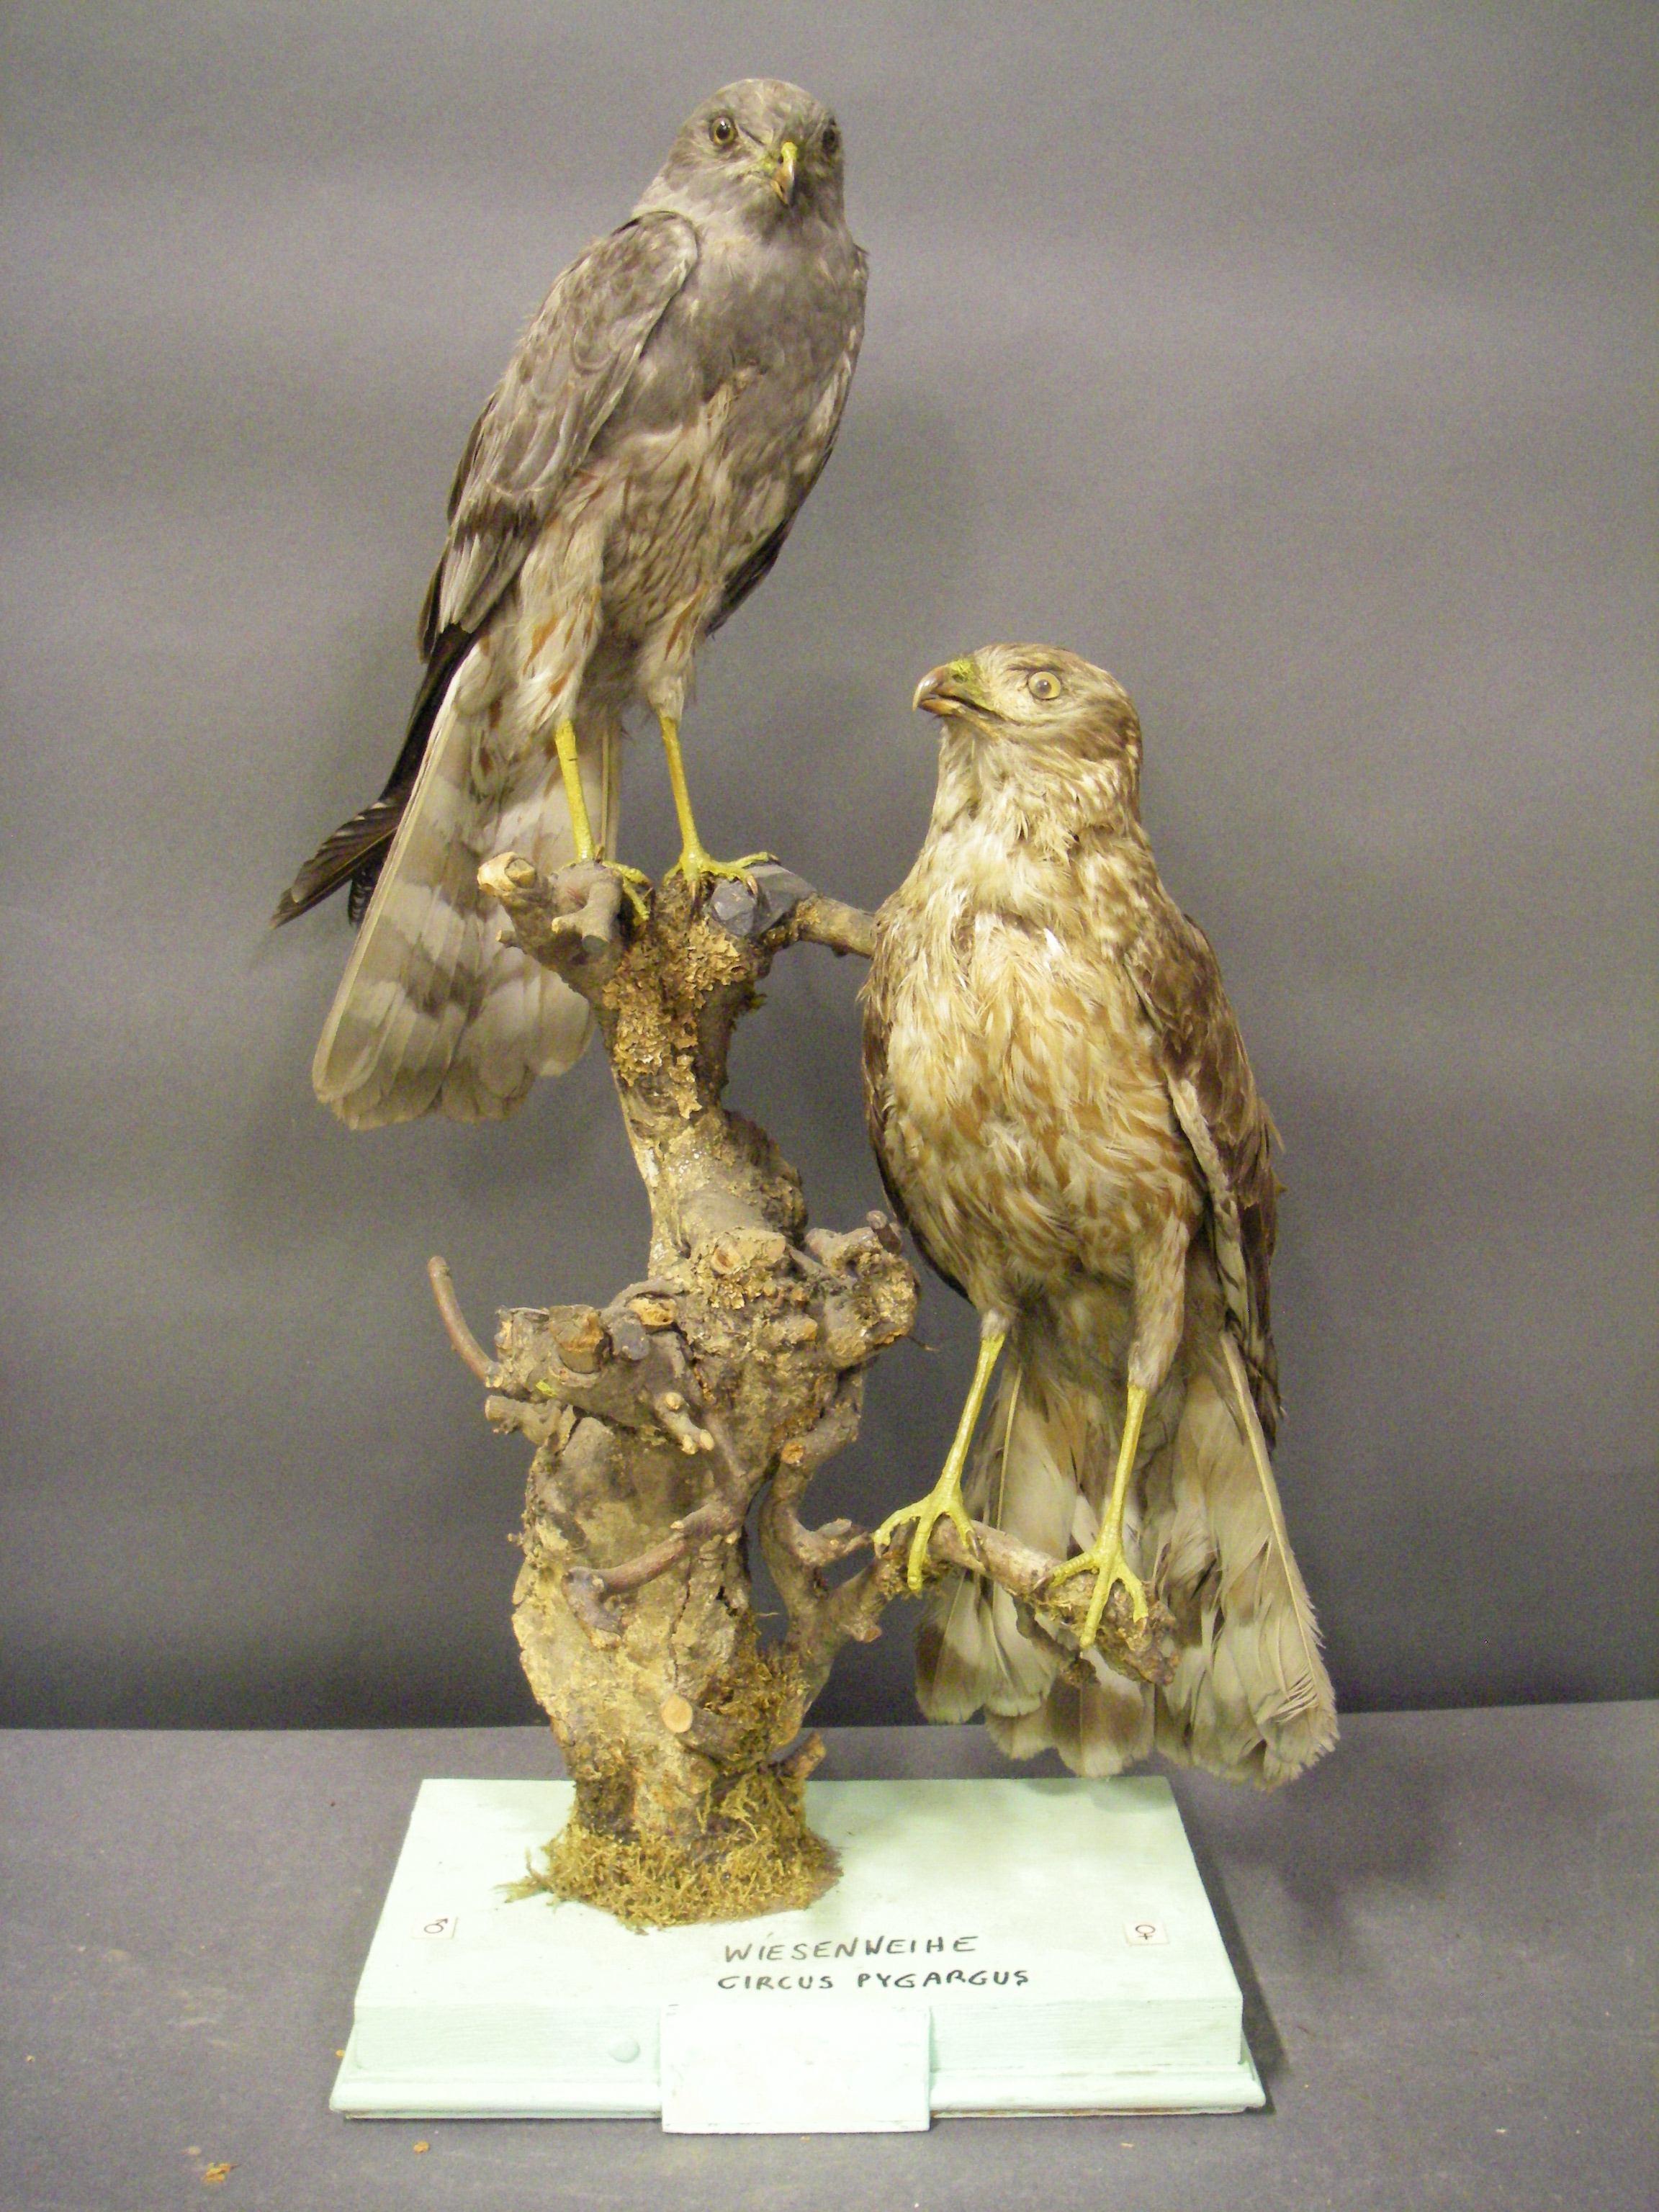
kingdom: Animalia
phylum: Chordata
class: Aves
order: Accipitriformes
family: Accipitridae
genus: Circus
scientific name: Circus pygargus
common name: Montagu's harrier
